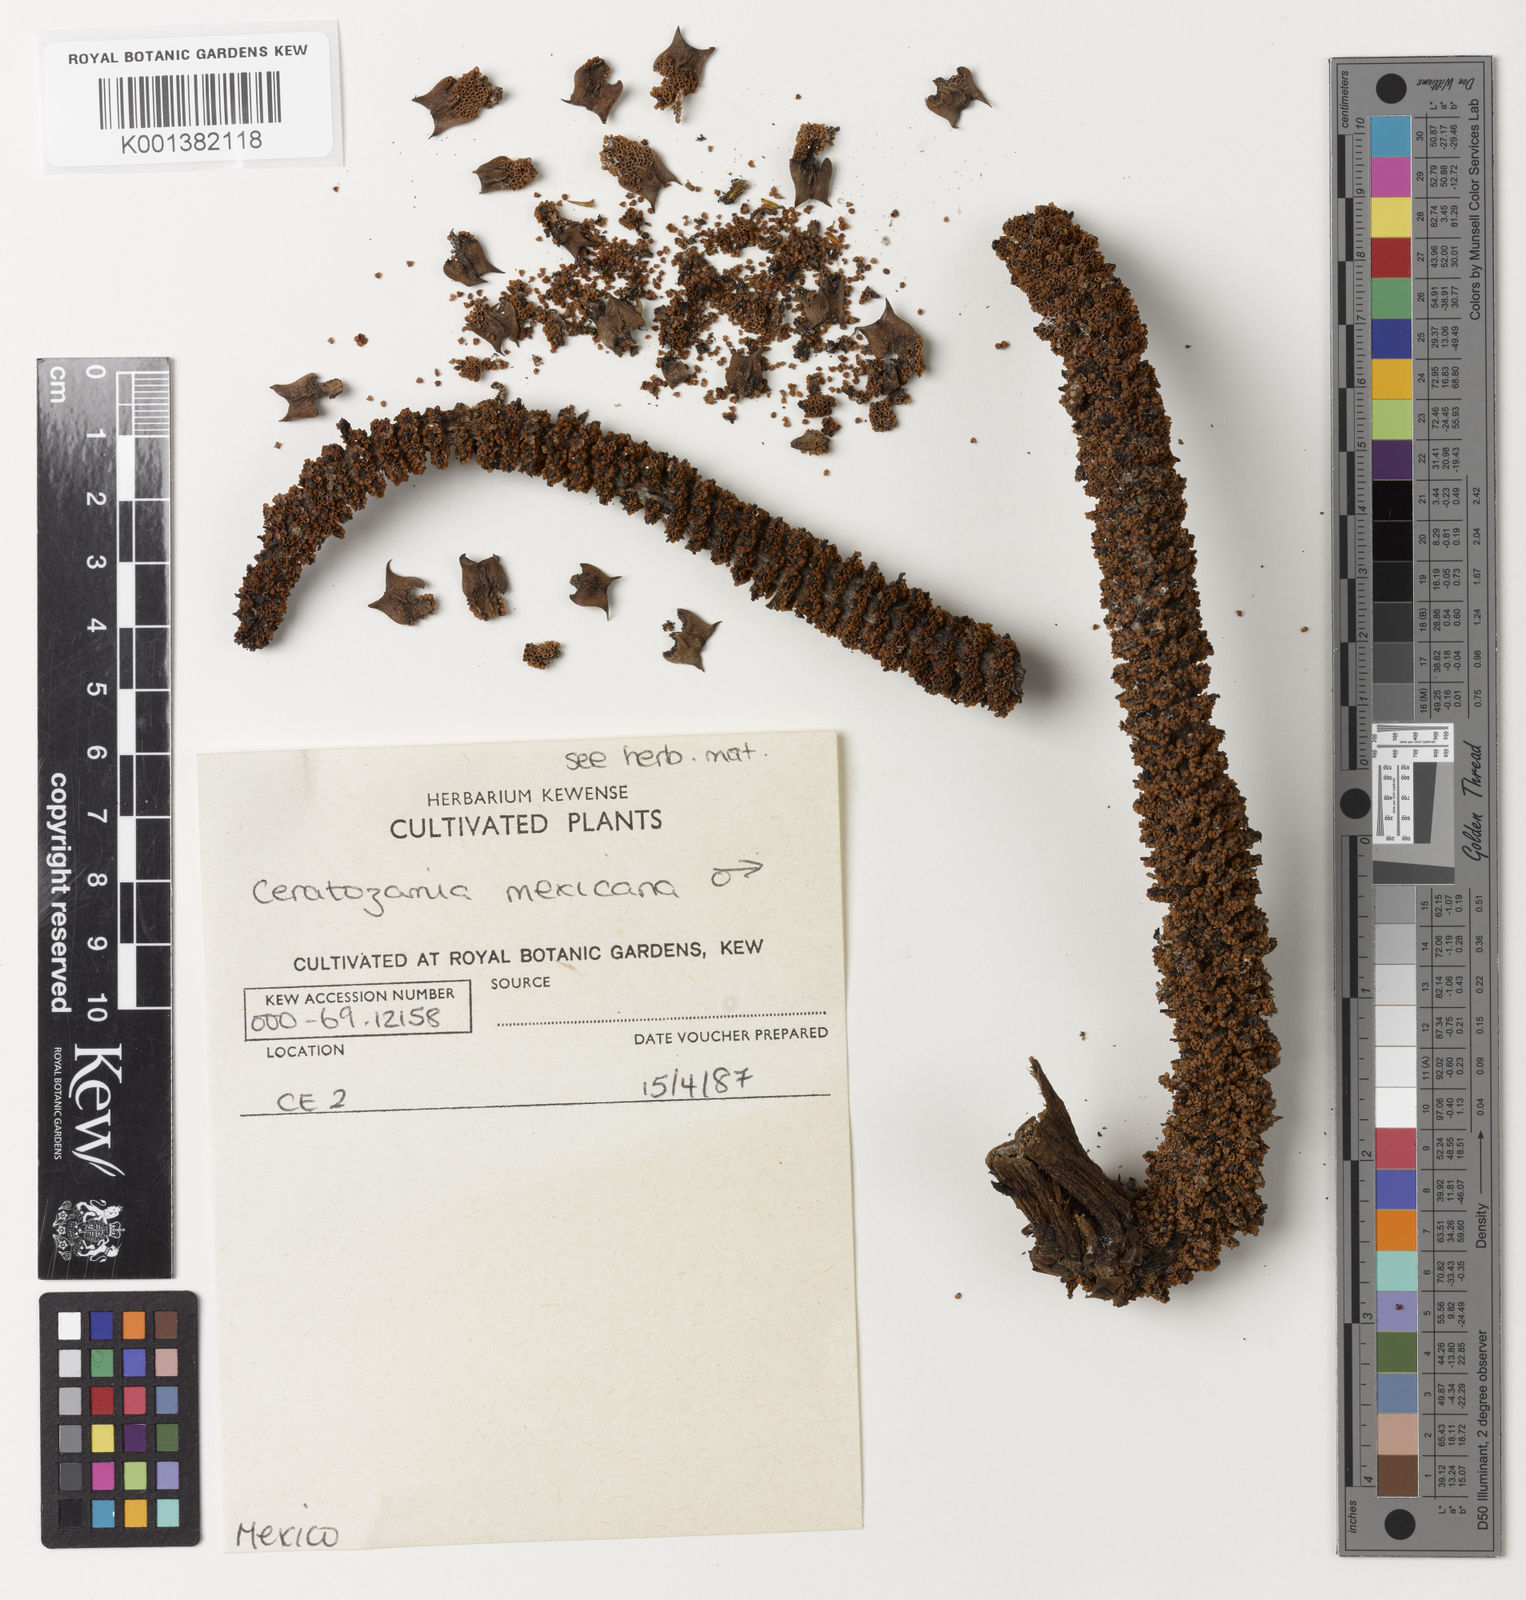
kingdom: Plantae
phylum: Tracheophyta
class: Cycadopsida
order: Cycadales
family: Zamiaceae
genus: Ceratozamia
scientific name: Ceratozamia mexicana
